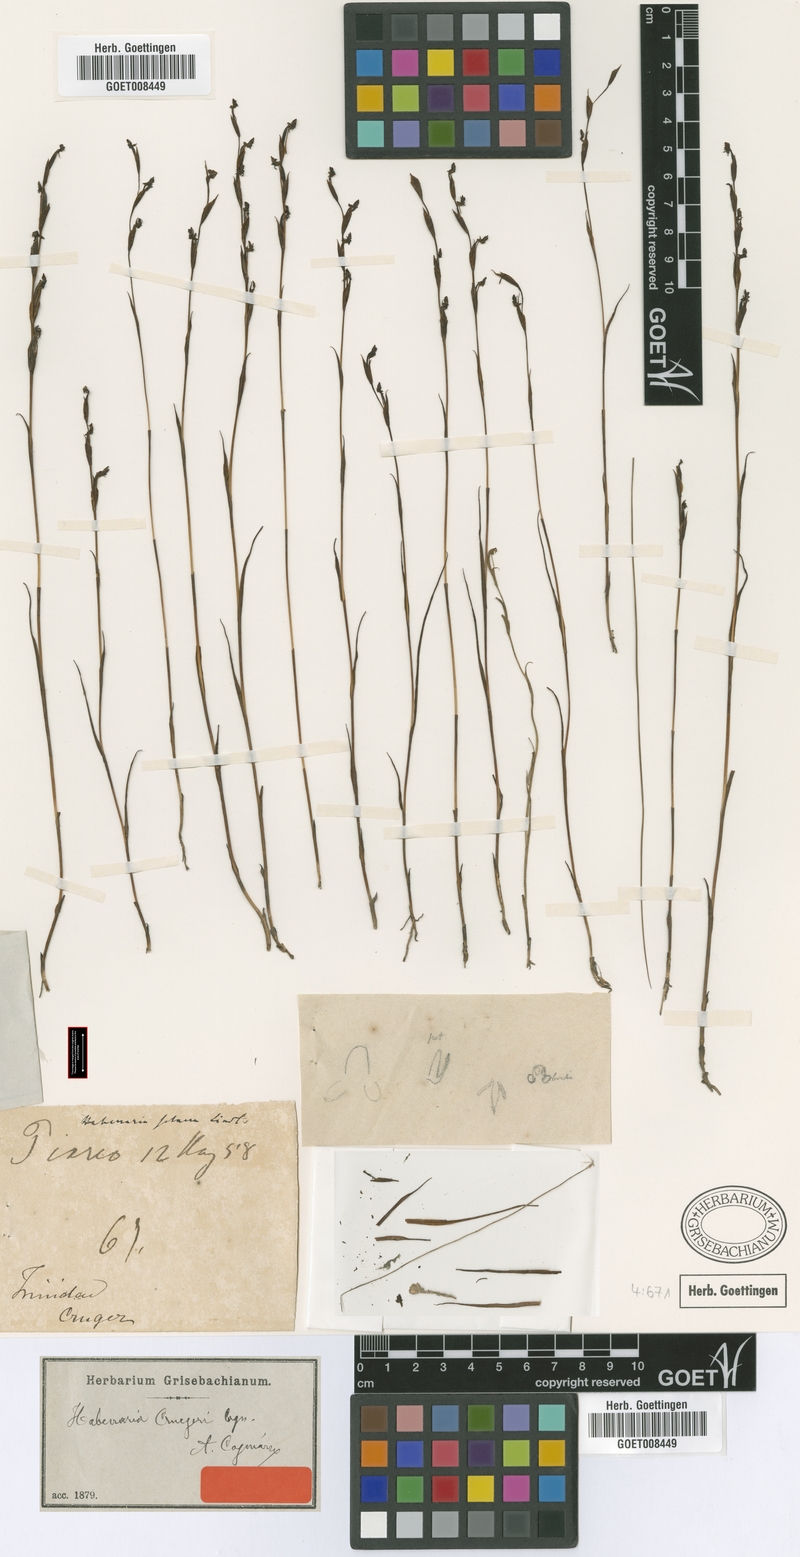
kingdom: Plantae
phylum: Tracheophyta
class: Liliopsida
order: Asparagales
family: Orchidaceae
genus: Habenaria
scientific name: Habenaria cruegeri
